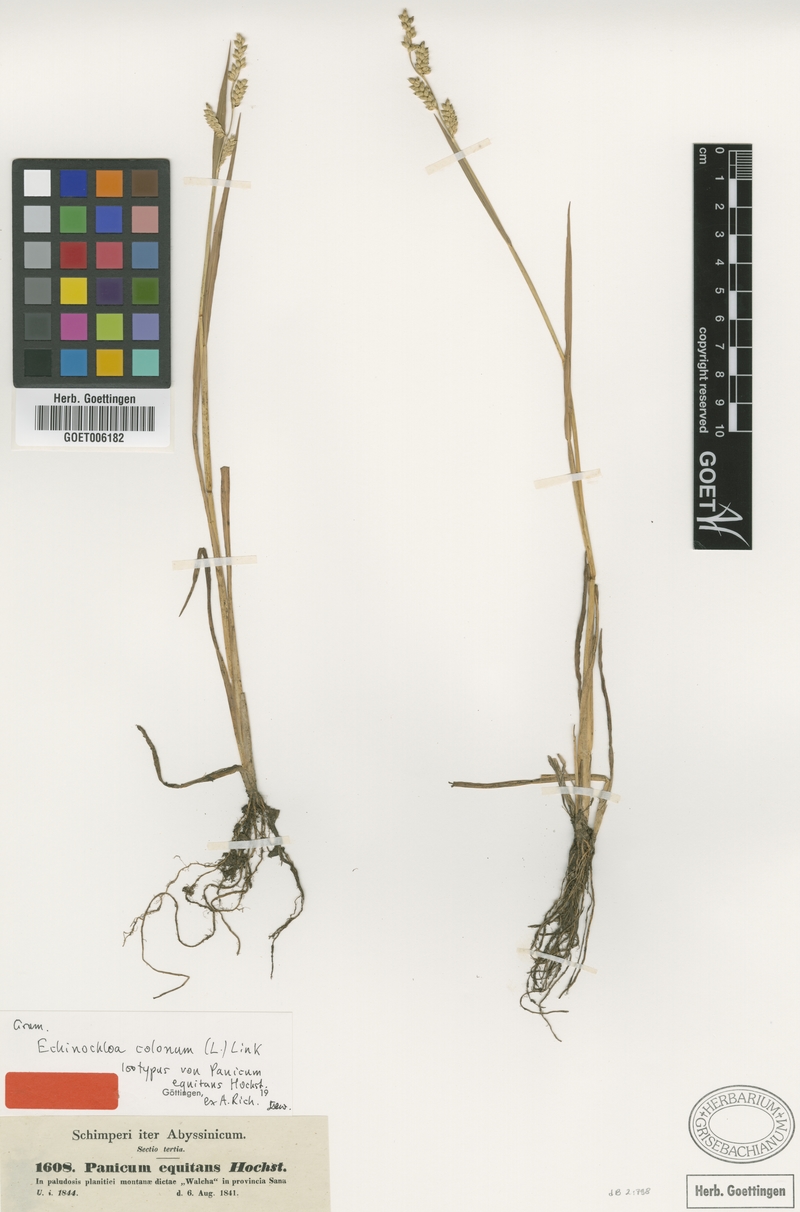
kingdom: Plantae
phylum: Tracheophyta
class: Liliopsida
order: Poales
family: Poaceae
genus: Echinochloa
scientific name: Echinochloa colonum
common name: Jungle rice
